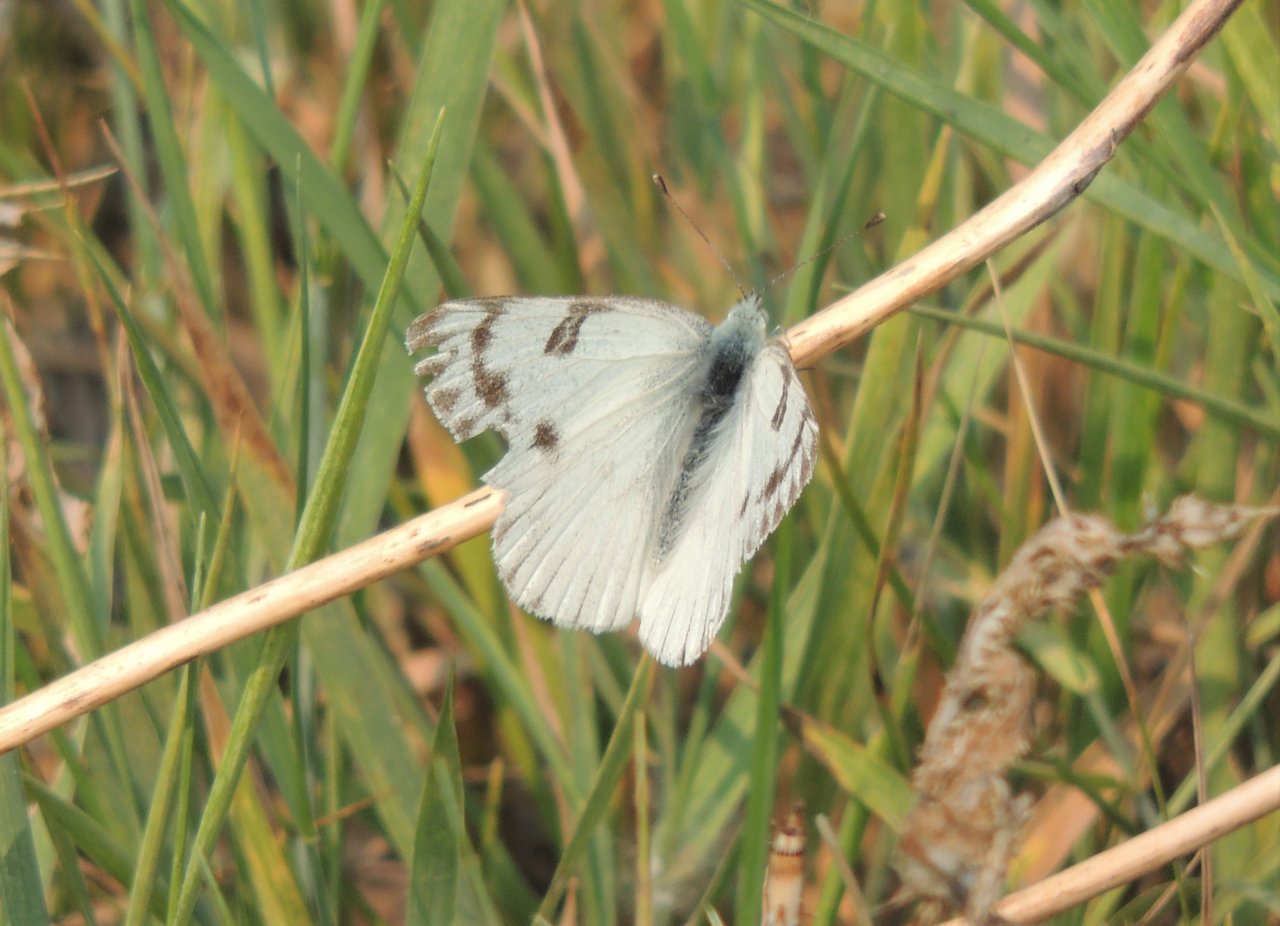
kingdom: Animalia
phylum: Arthropoda
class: Insecta
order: Lepidoptera
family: Pieridae
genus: Pontia
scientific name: Pontia occidentalis
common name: Western White
